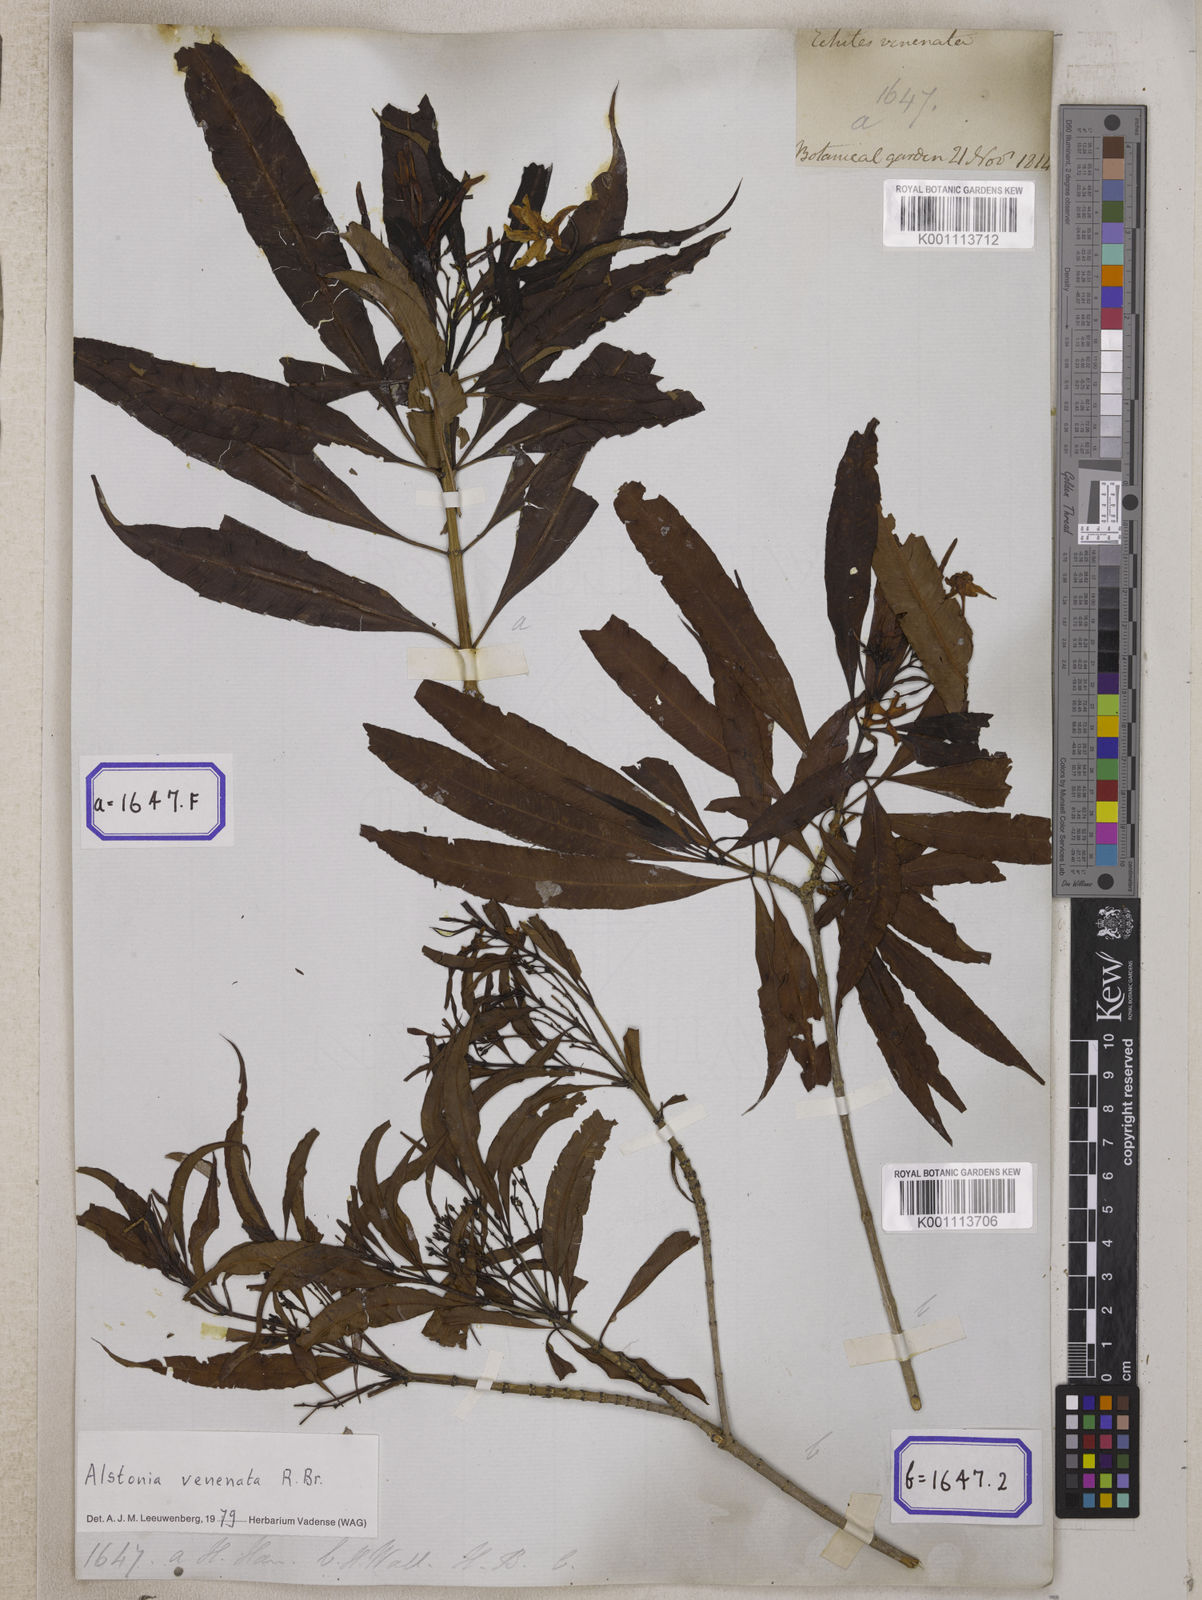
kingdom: Plantae
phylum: Tracheophyta
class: Magnoliopsida
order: Gentianales
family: Apocynaceae
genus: Alstonia
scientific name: Alstonia venenata
